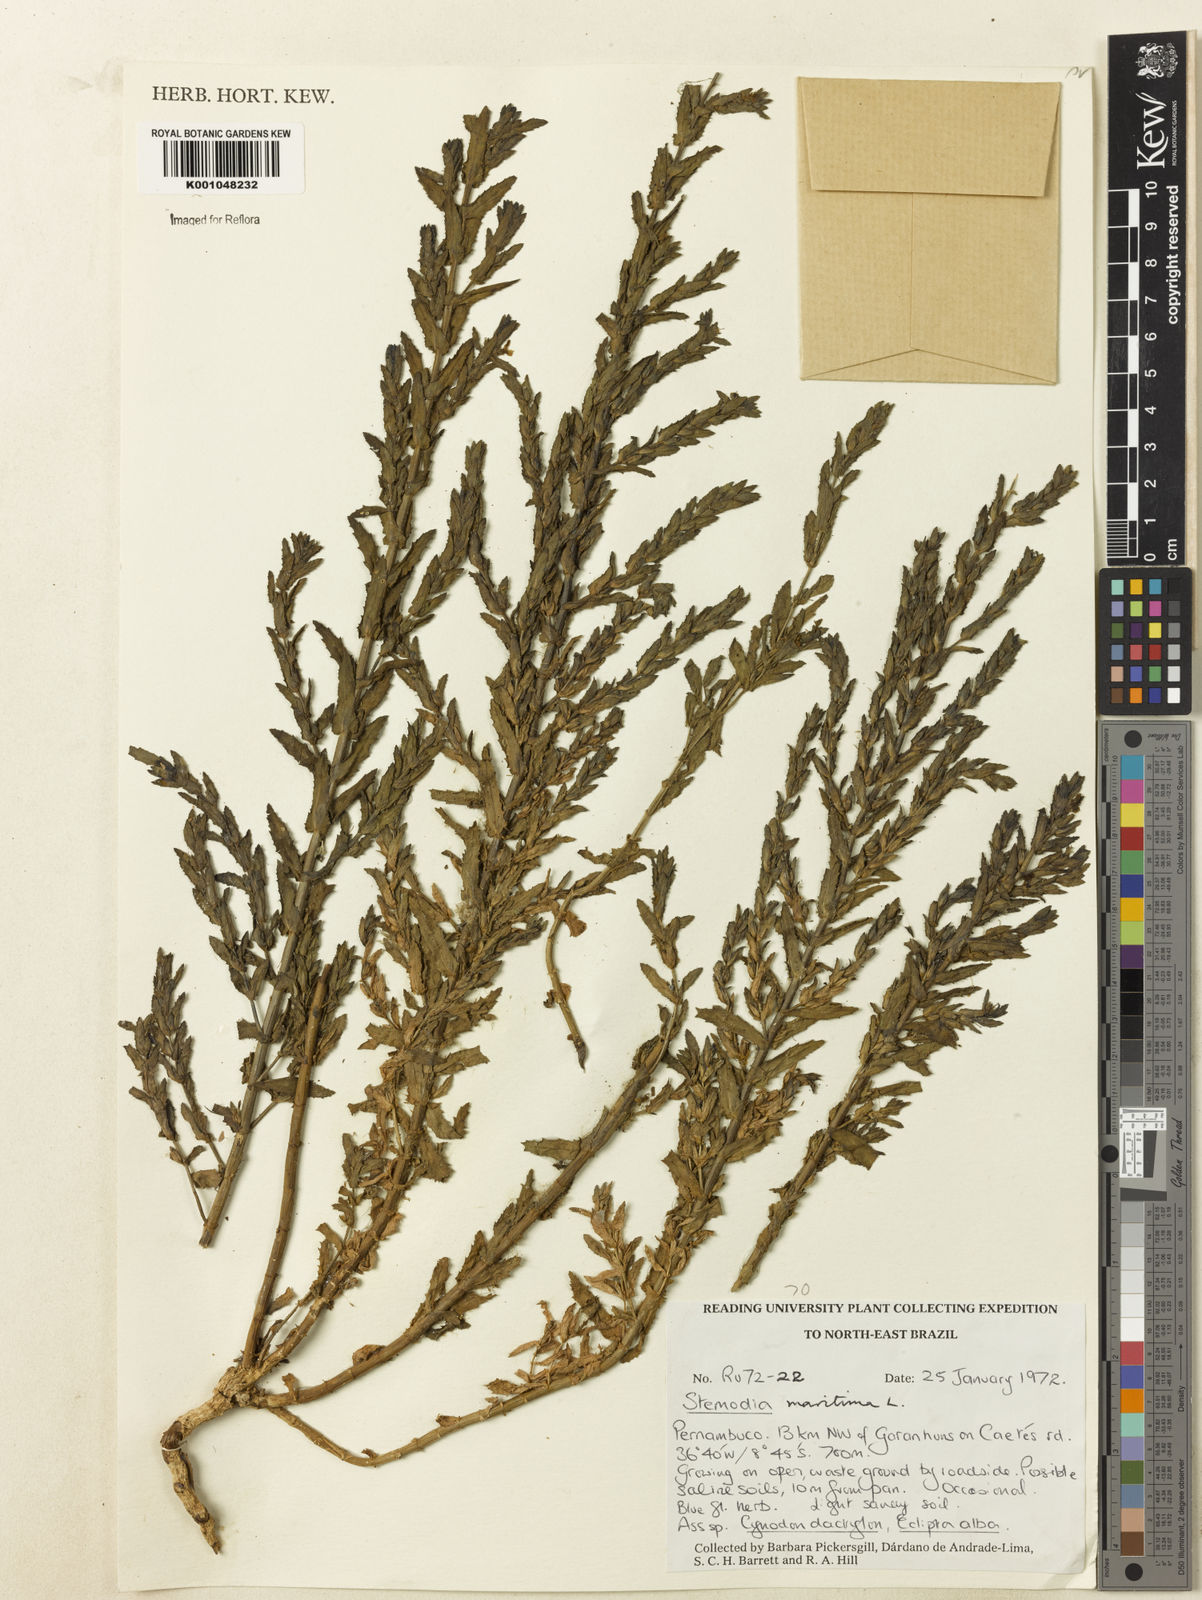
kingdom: Plantae
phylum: Tracheophyta
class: Magnoliopsida
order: Lamiales
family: Plantaginaceae
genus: Stemodia
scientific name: Stemodia maritima
